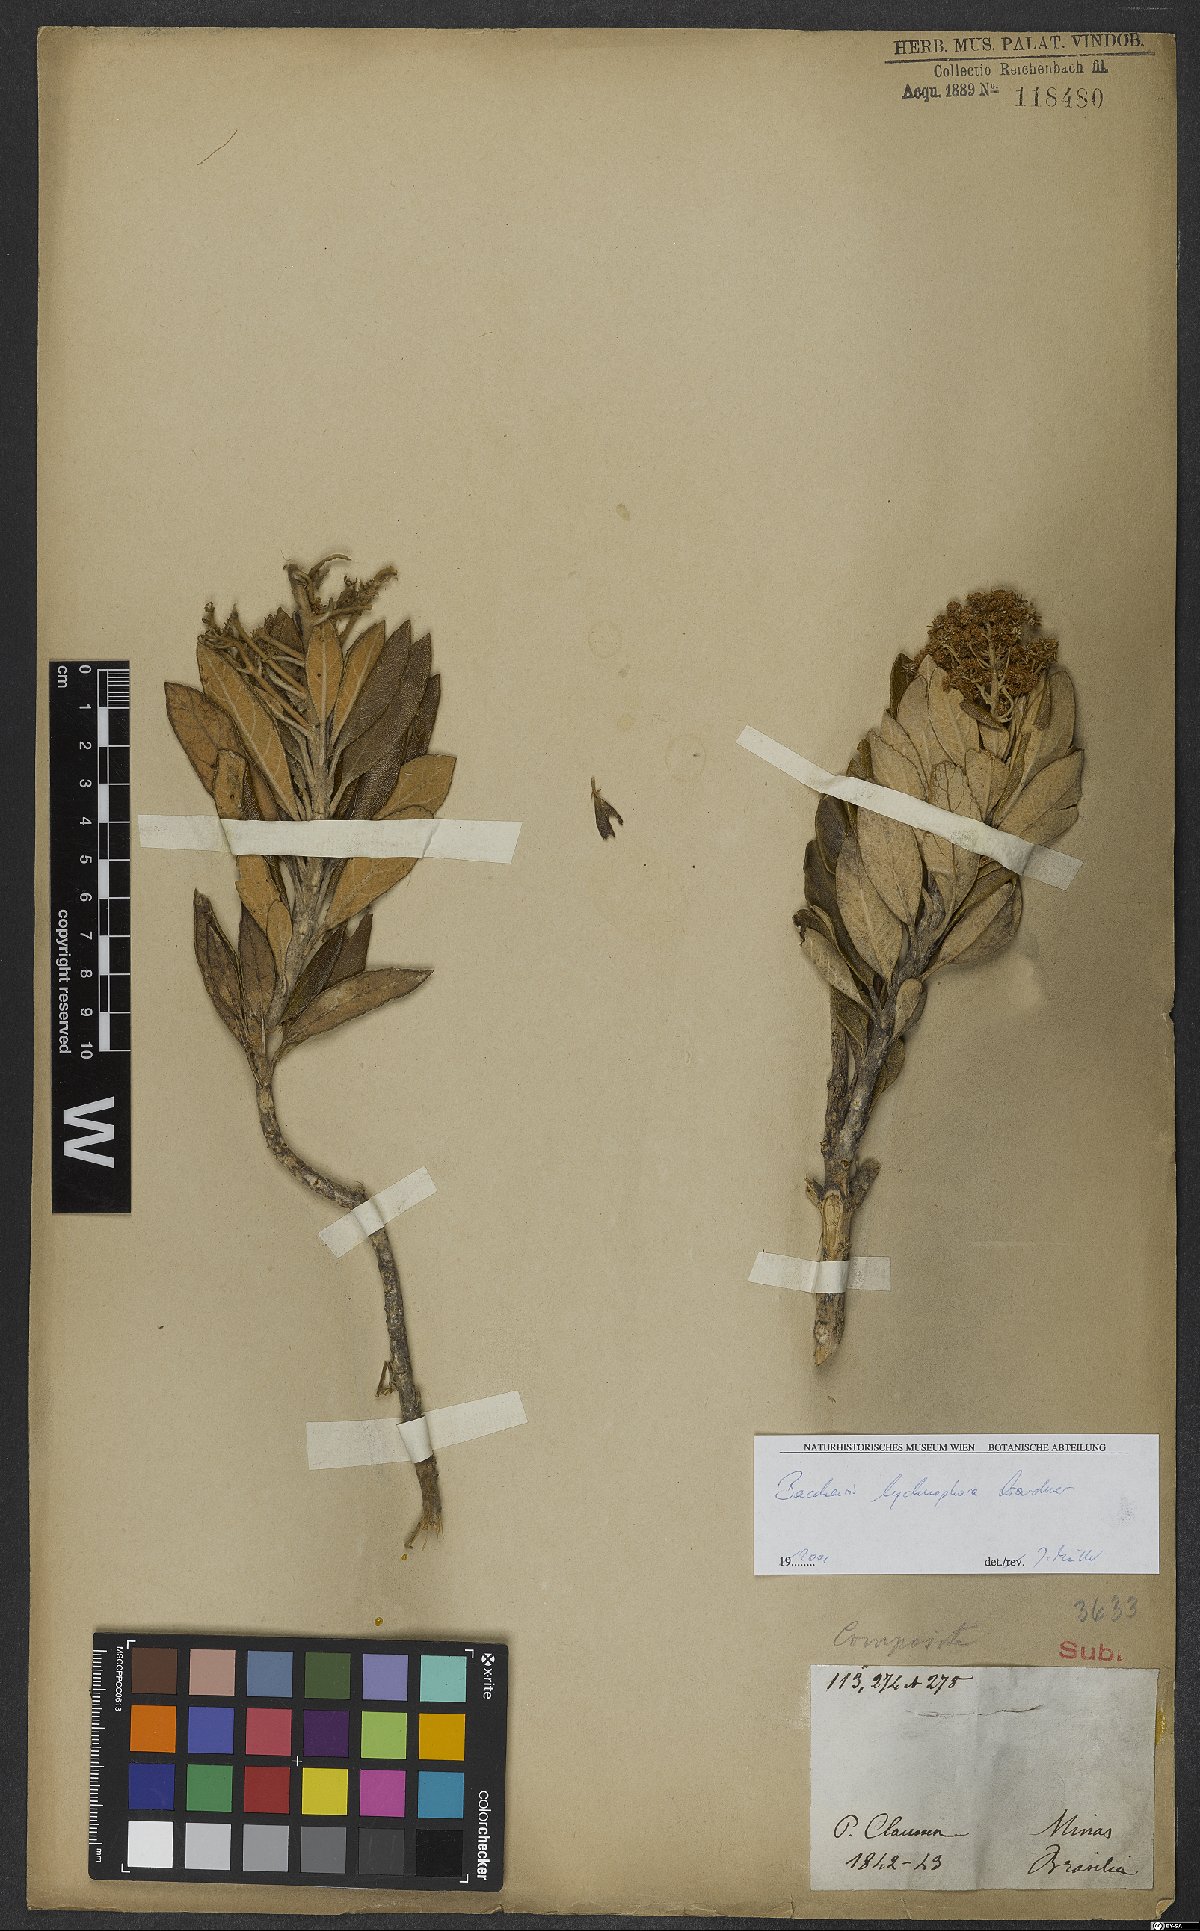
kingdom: Plantae
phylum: Tracheophyta
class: Magnoliopsida
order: Asterales
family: Asteraceae
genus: Baccharis
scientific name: Baccharis lychnophora
